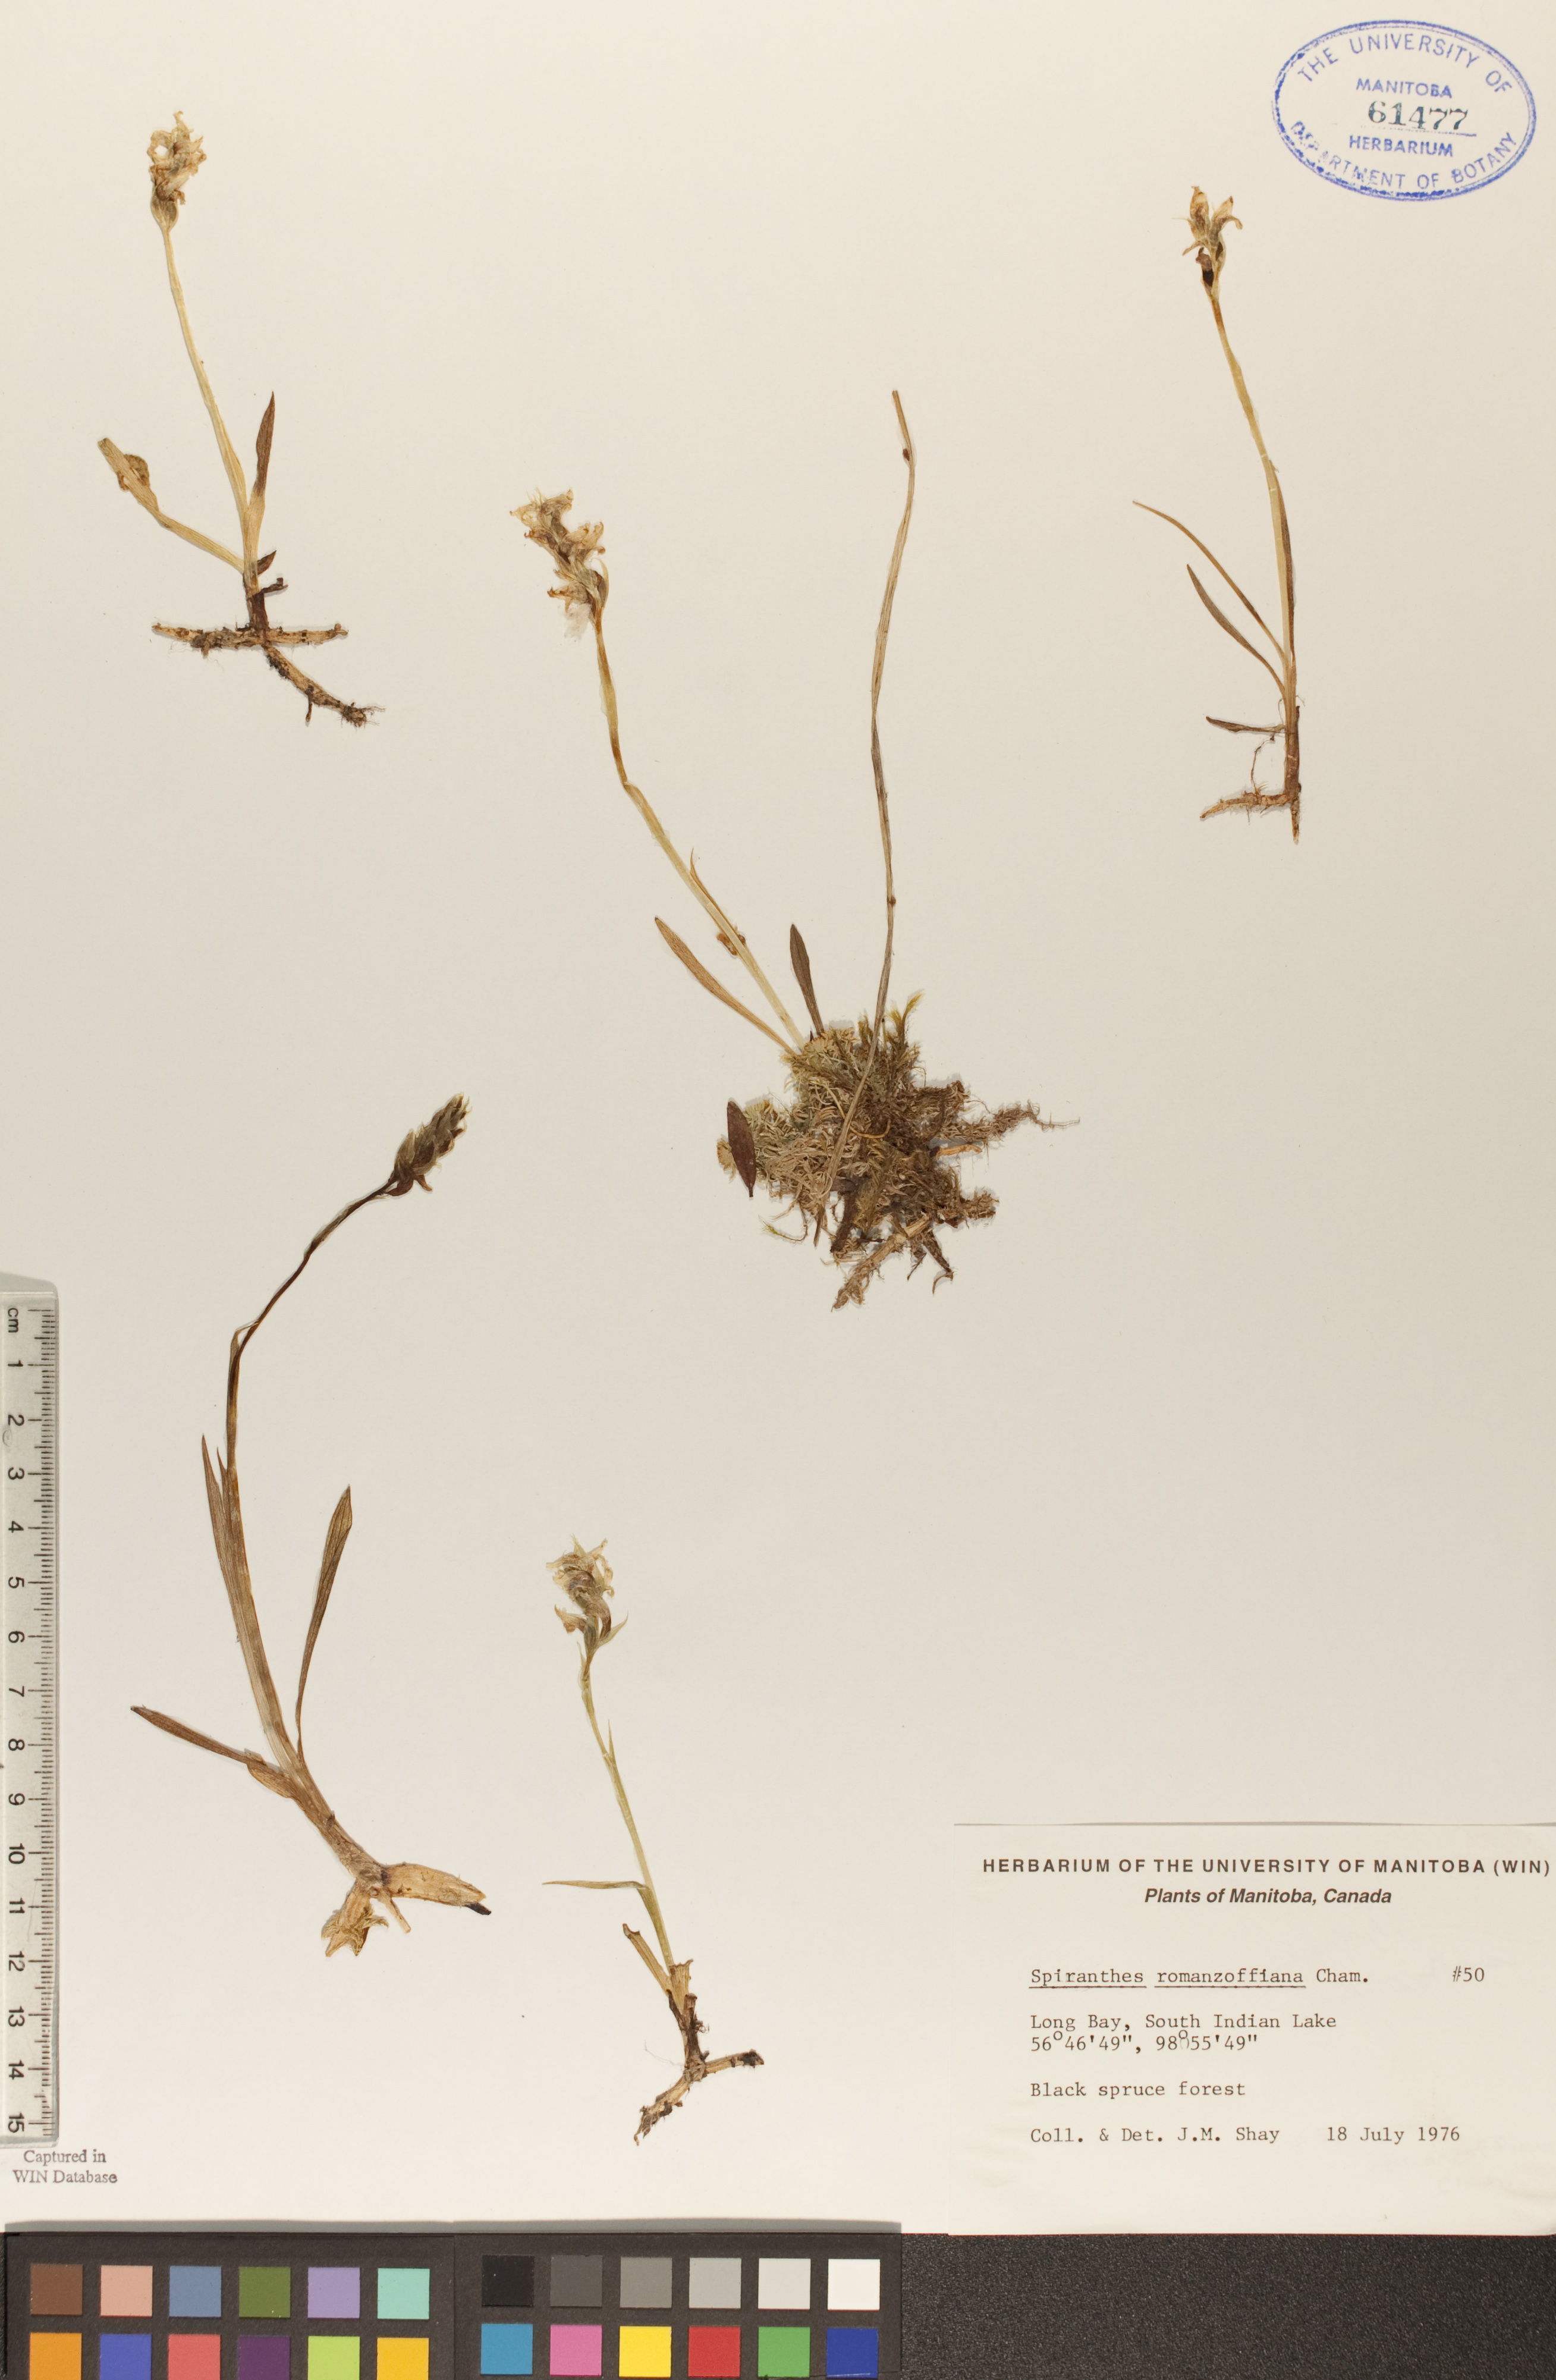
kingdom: Plantae
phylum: Tracheophyta
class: Liliopsida
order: Asparagales
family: Orchidaceae
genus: Spiranthes
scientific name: Spiranthes romanzoffiana
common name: Irish lady's-tresses
